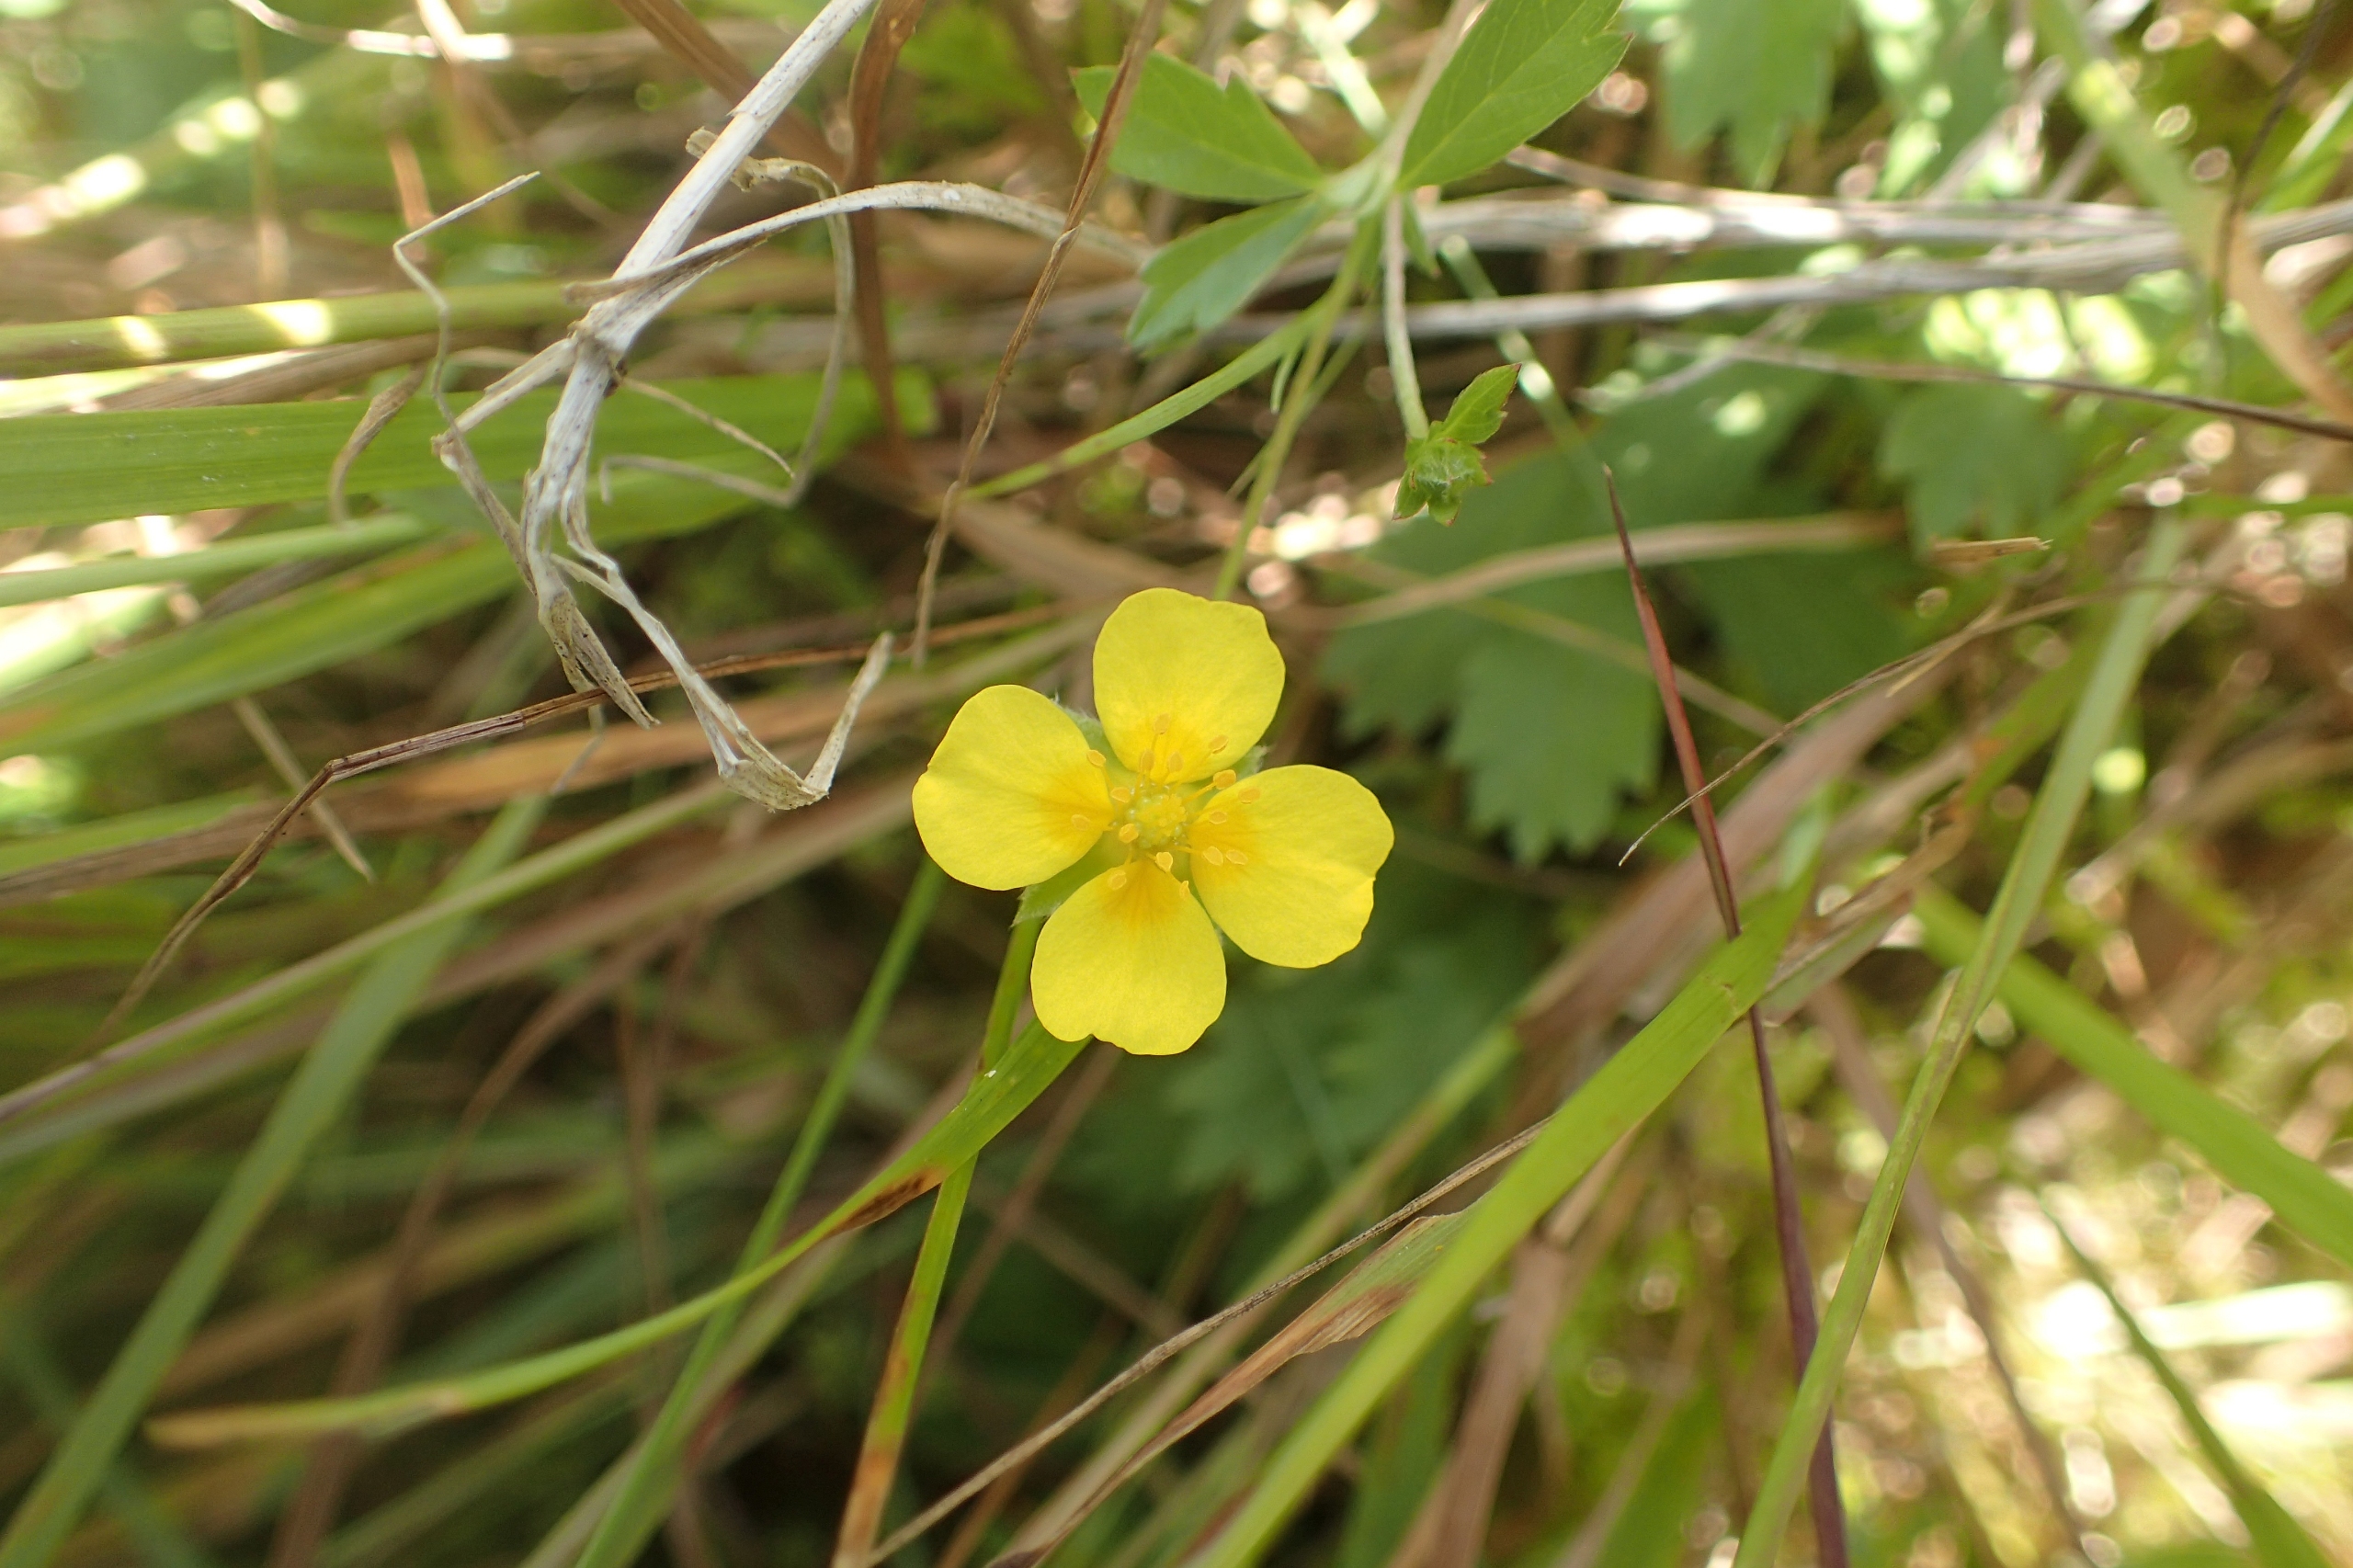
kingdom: Plantae
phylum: Tracheophyta
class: Magnoliopsida
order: Rosales
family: Rosaceae
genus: Potentilla
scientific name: Potentilla anglica
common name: Liggende potentil
